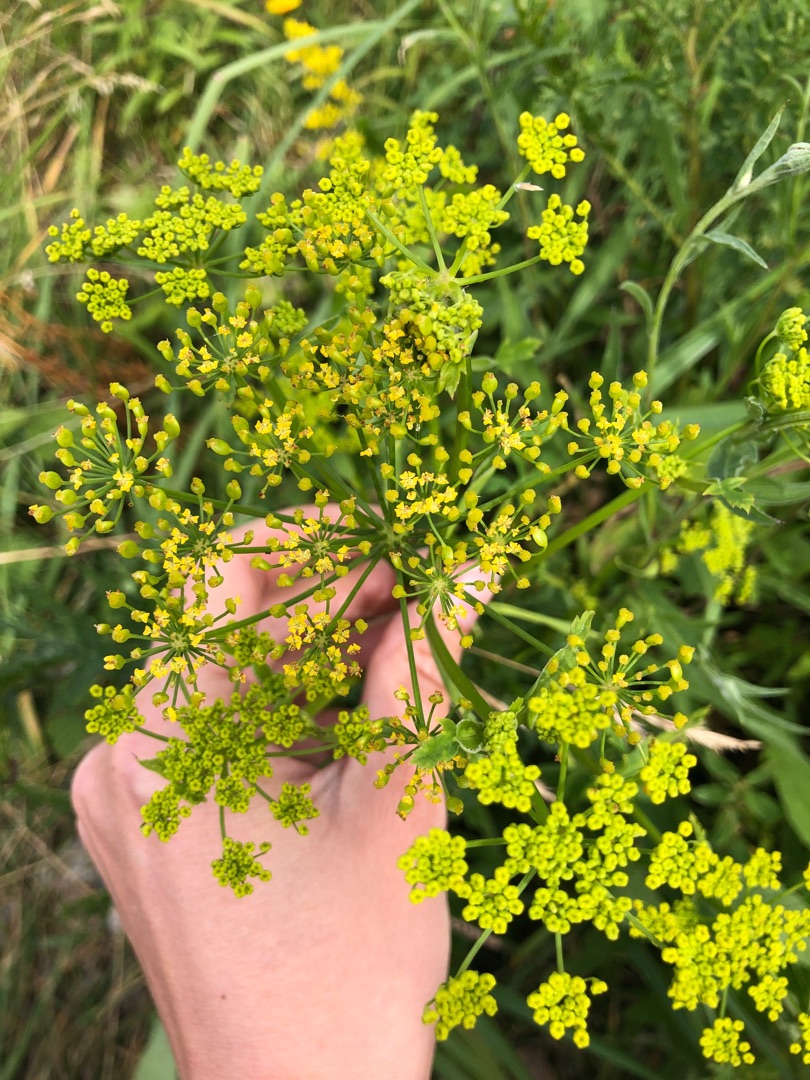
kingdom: Plantae
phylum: Tracheophyta
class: Magnoliopsida
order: Apiales
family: Apiaceae
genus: Pastinaca
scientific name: Pastinaca sativa
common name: Pastinak
